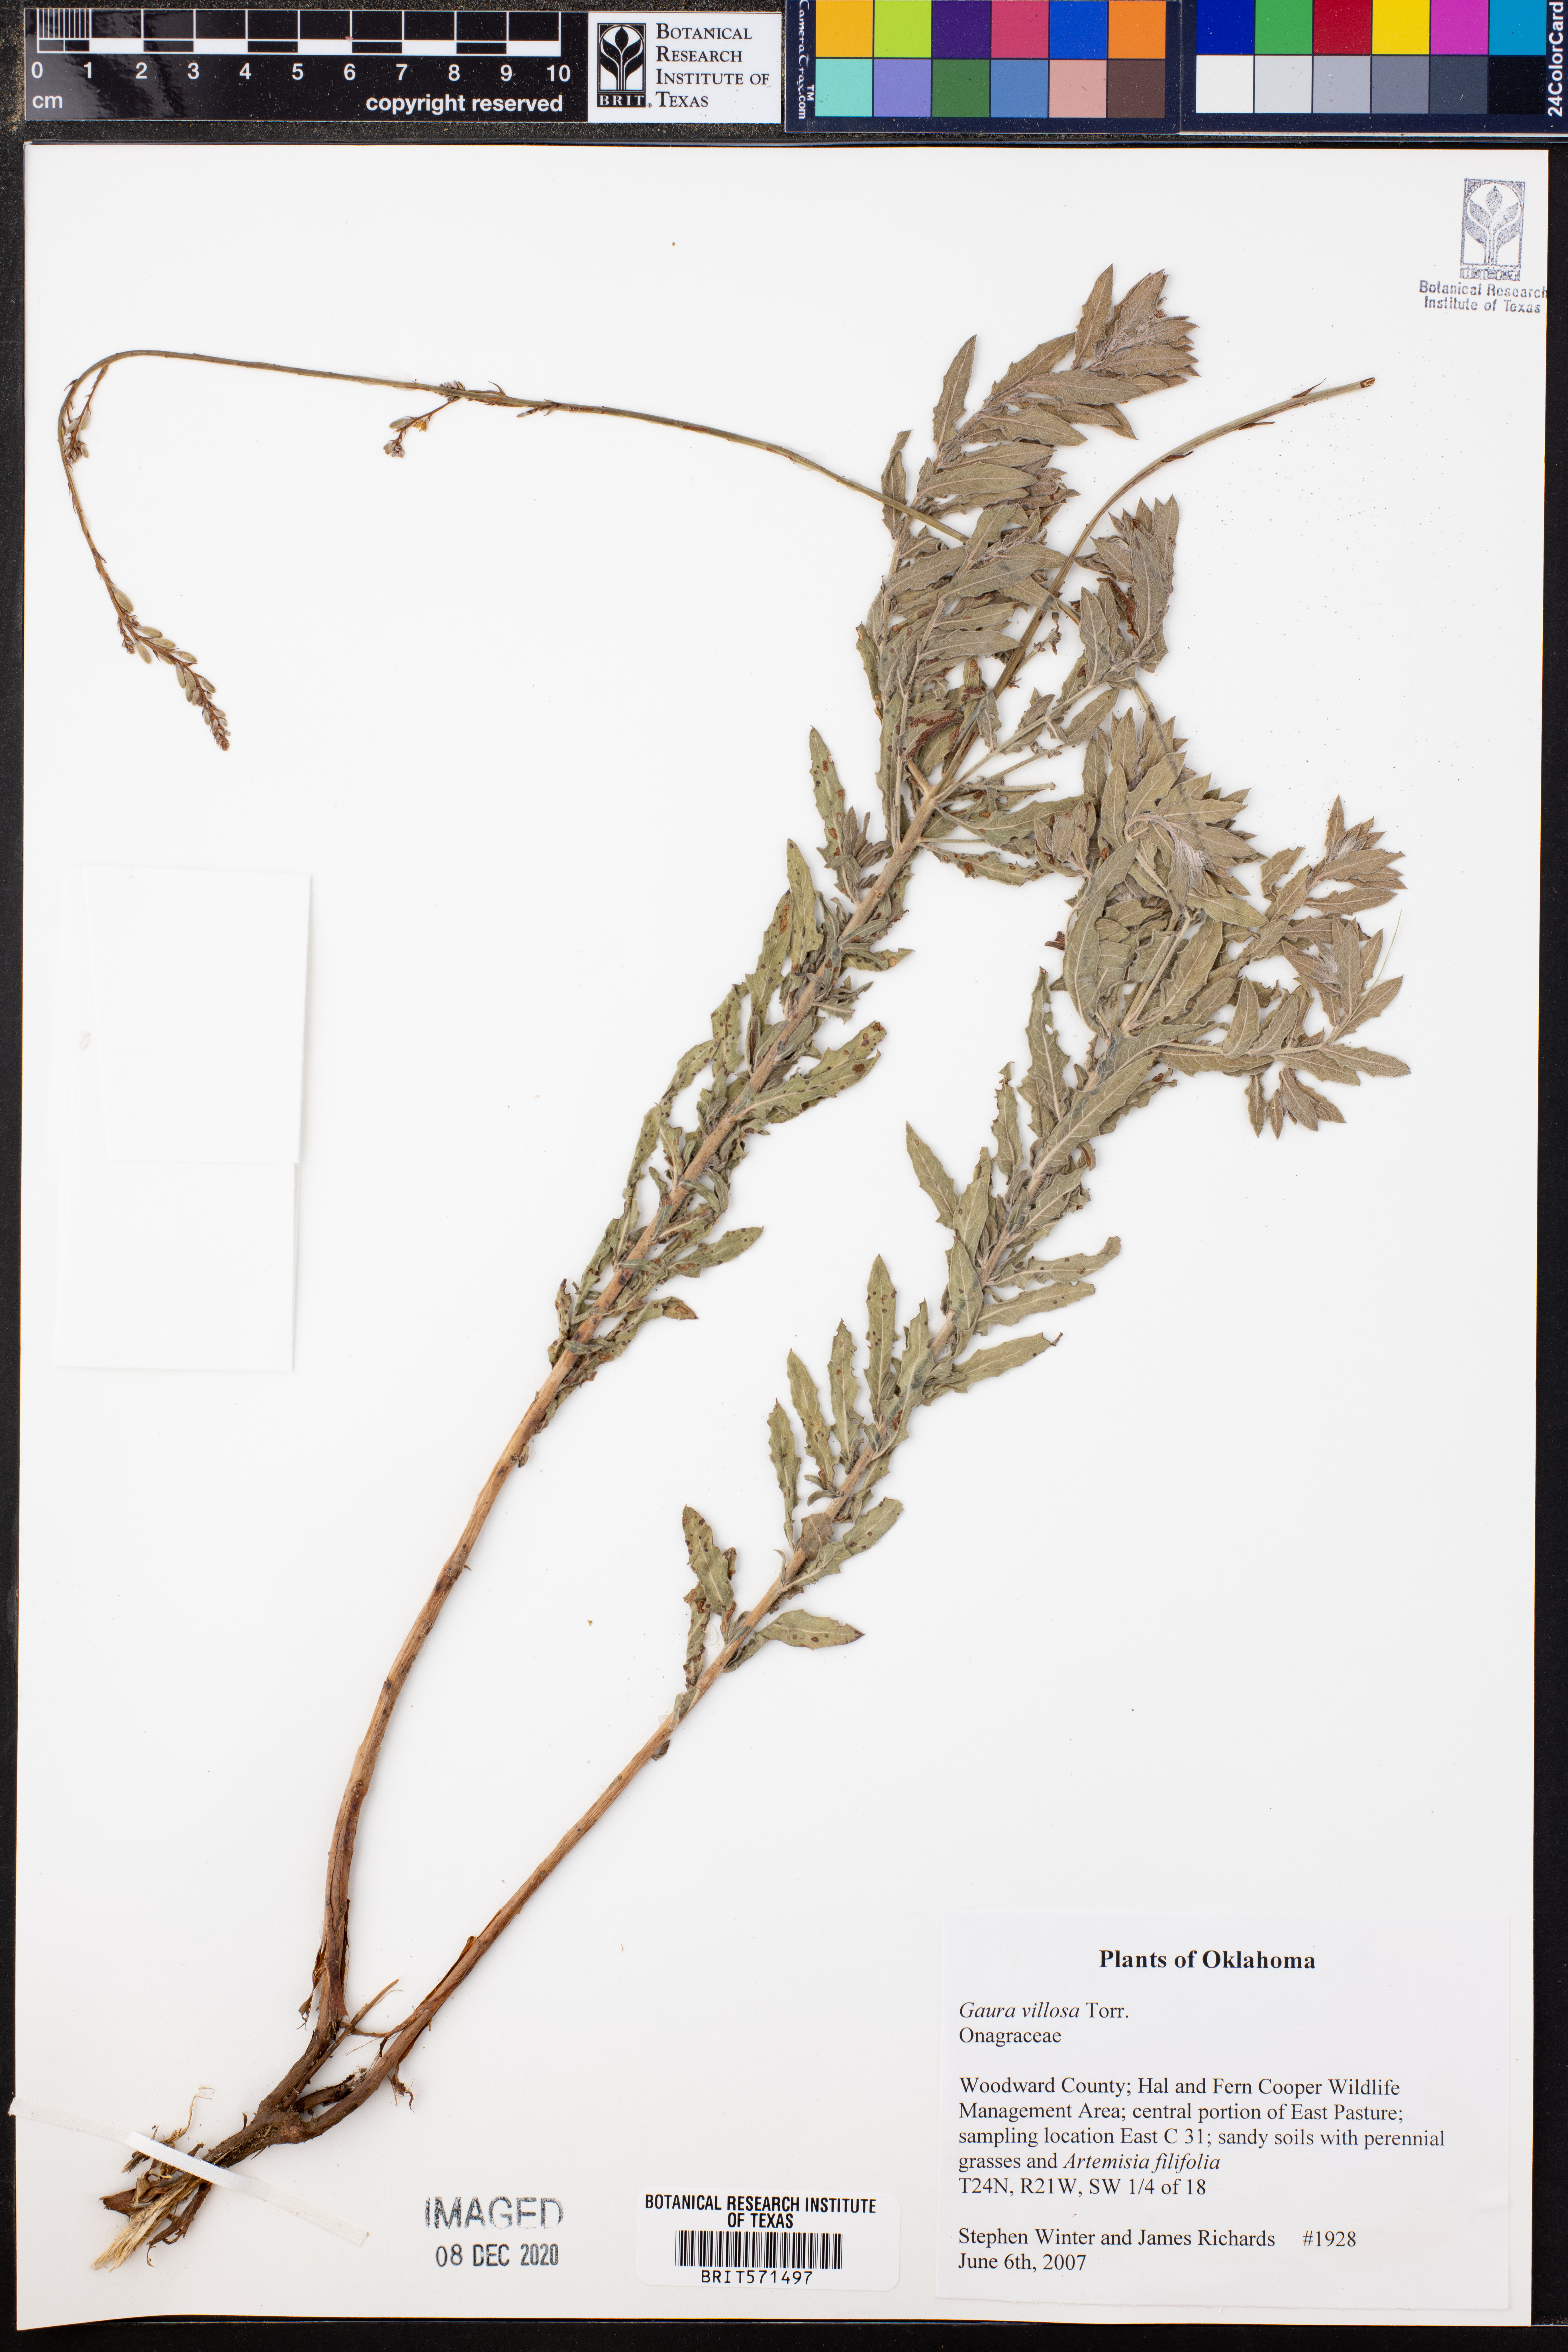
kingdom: Plantae
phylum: Tracheophyta
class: Magnoliopsida
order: Myrtales
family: Onagraceae
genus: Oenothera
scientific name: Oenothera cinerea
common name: Woolly beeblossom
